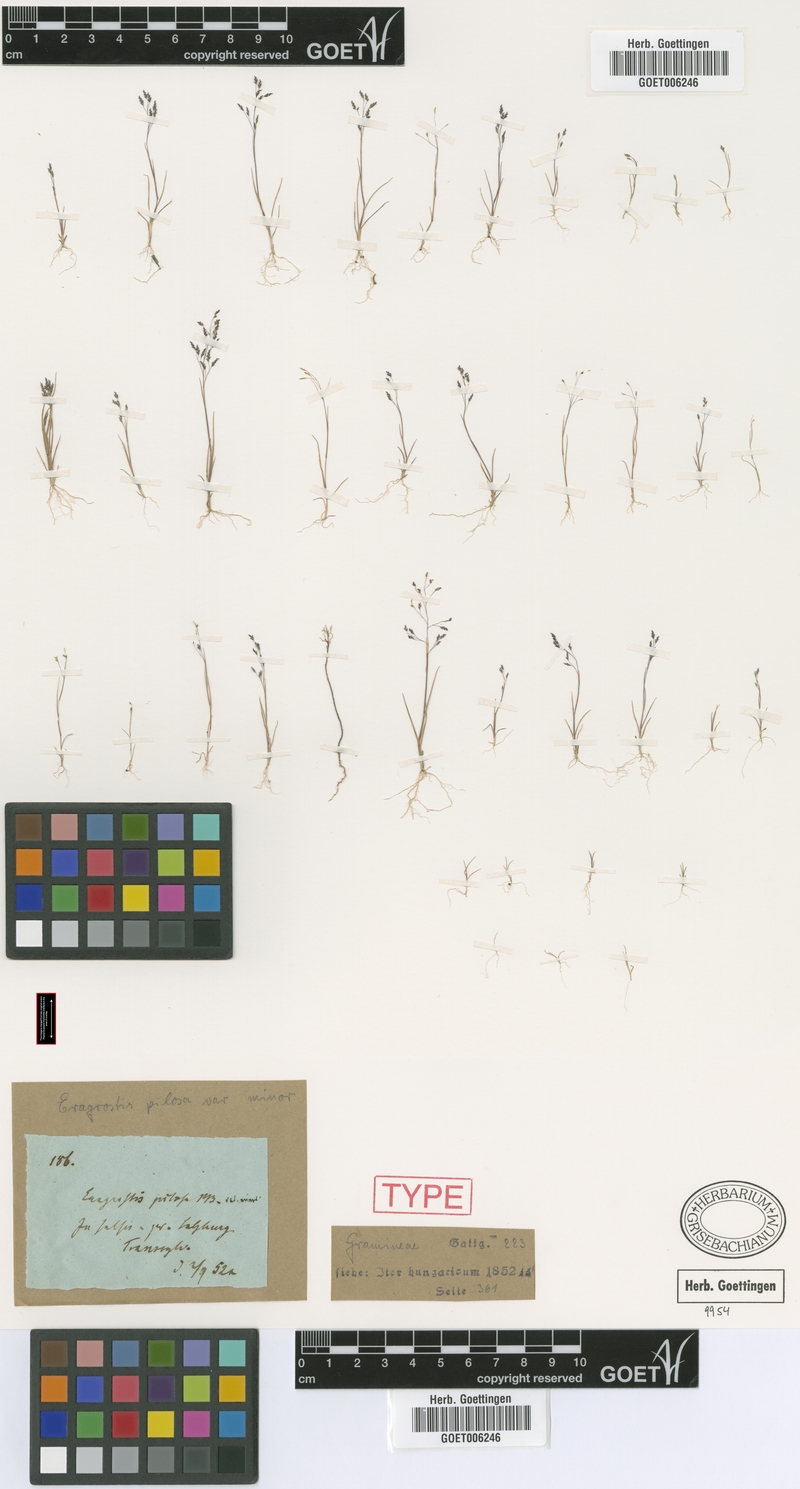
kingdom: Plantae
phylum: Tracheophyta
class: Liliopsida
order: Poales
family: Poaceae
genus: Eragrostis
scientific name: Eragrostis minor
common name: Small love-grass
